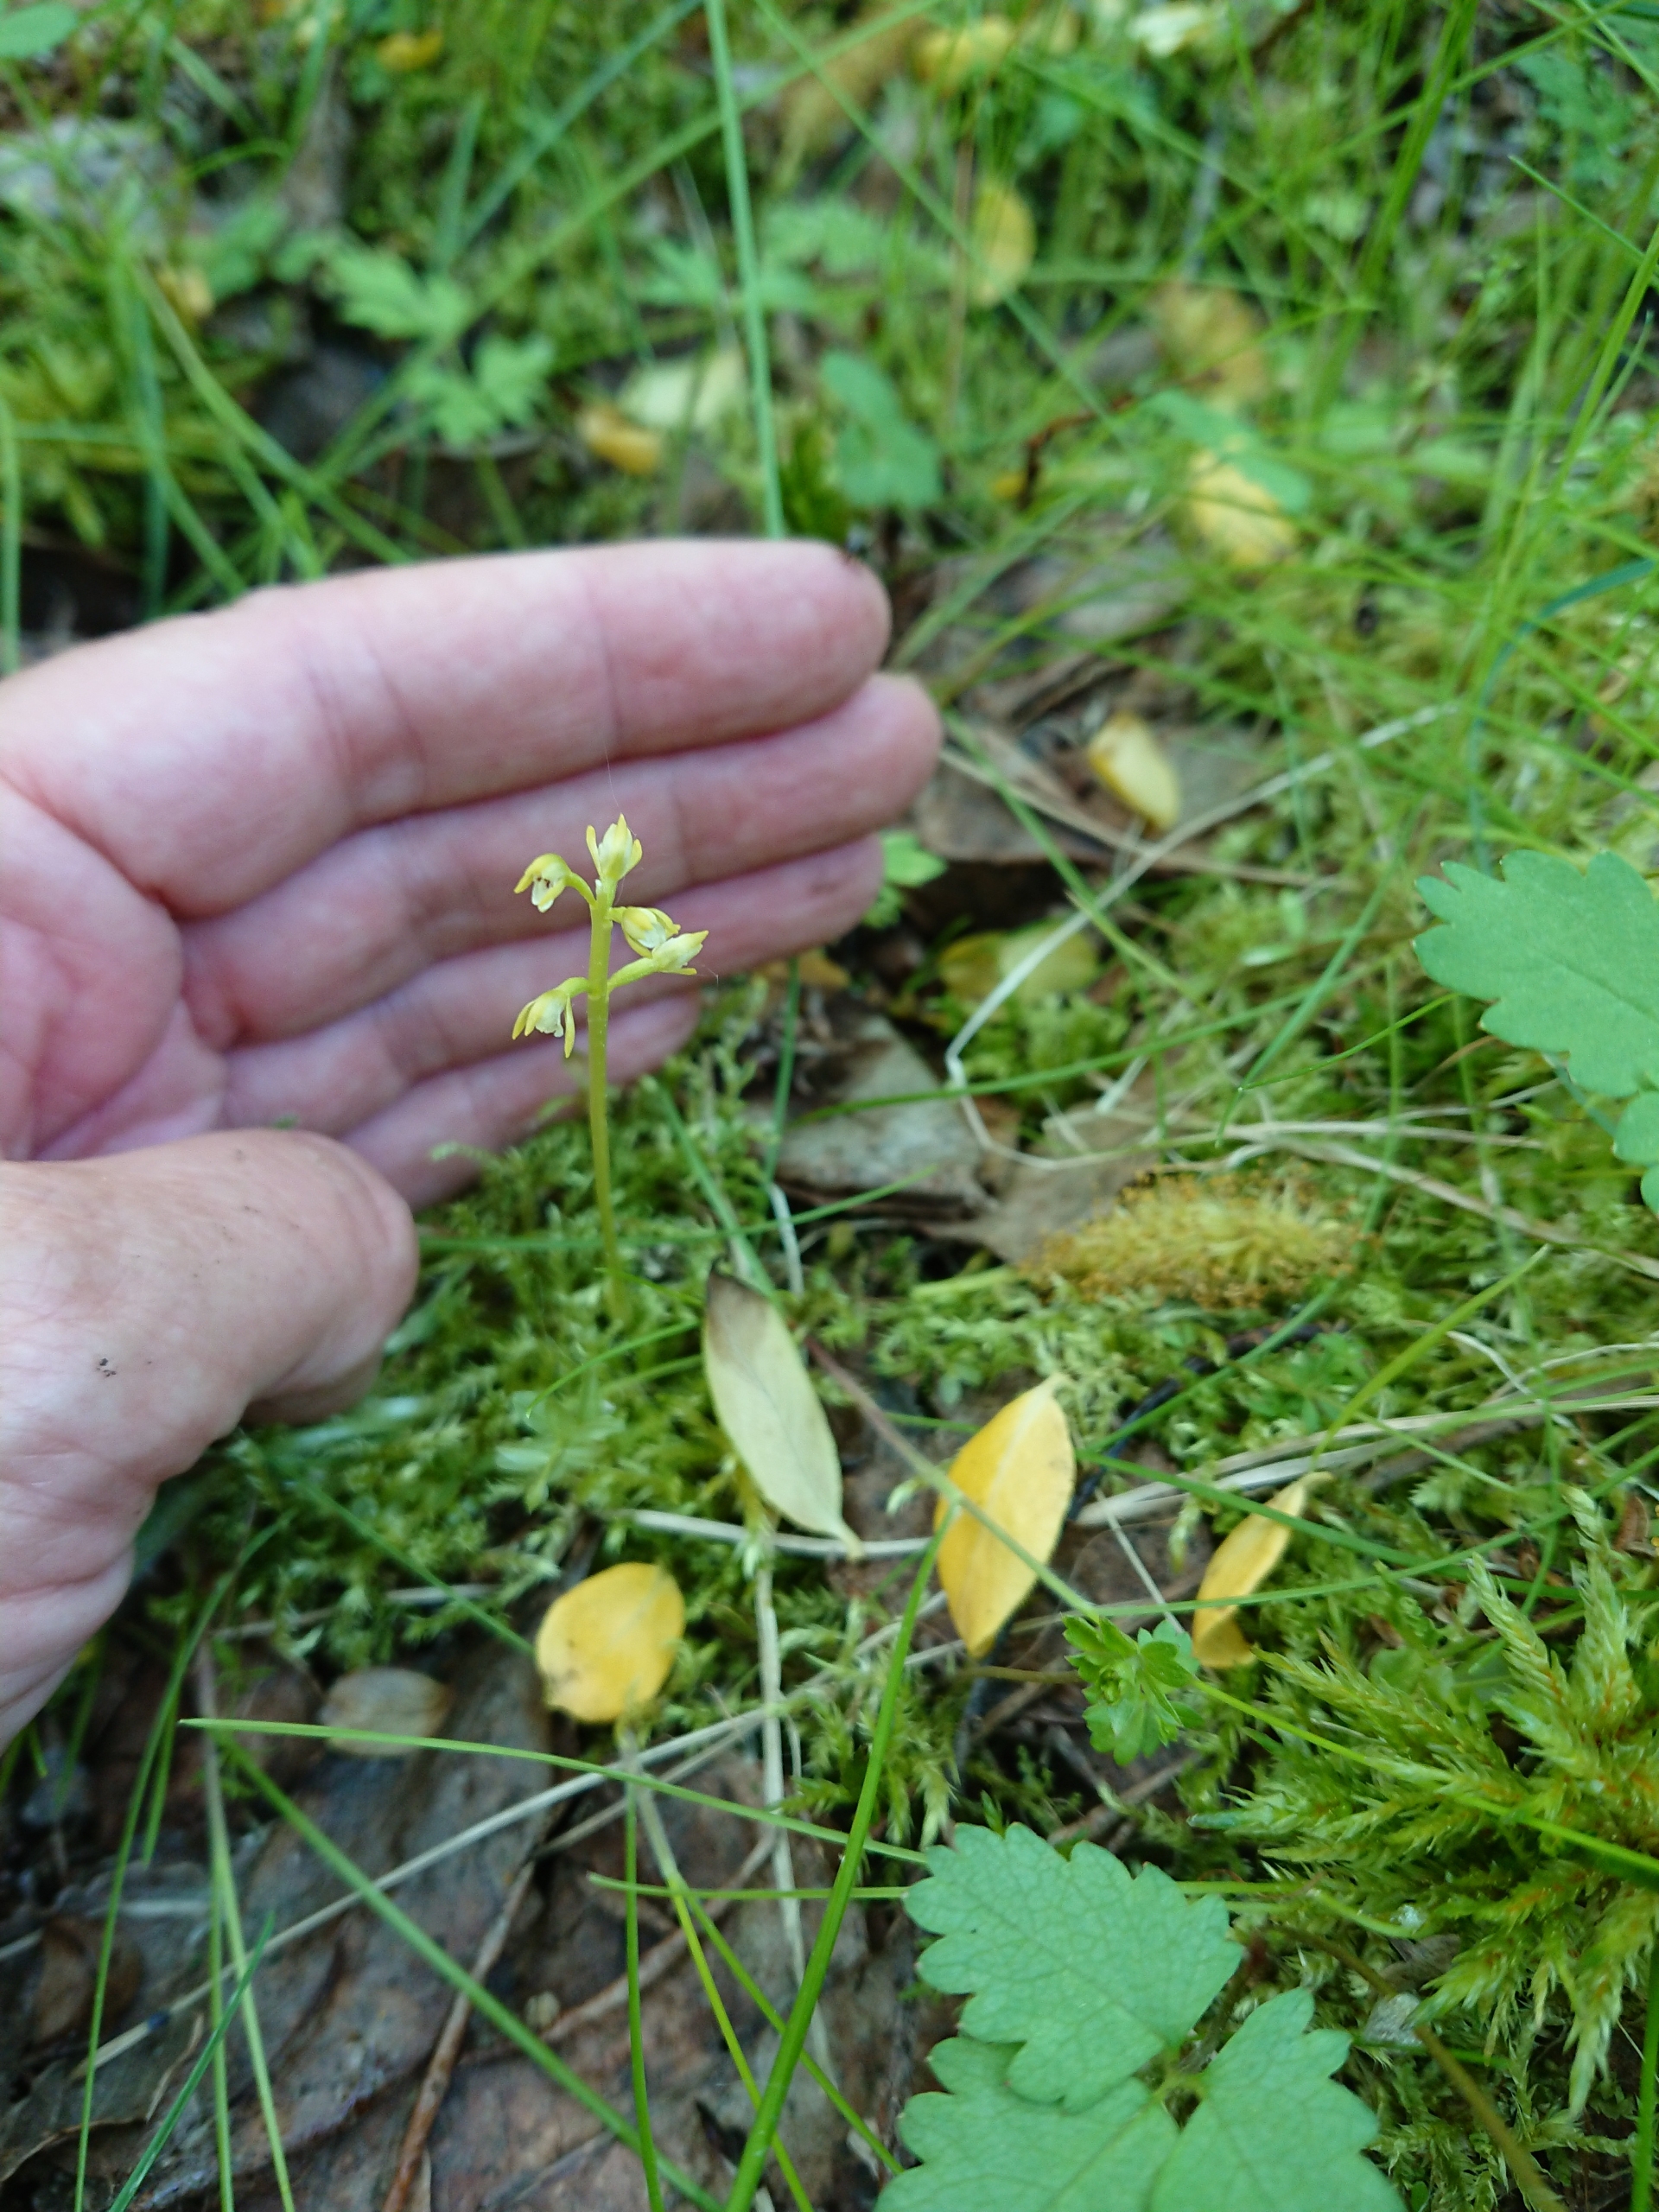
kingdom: Plantae
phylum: Tracheophyta
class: Liliopsida
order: Asparagales
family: Orchidaceae
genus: Corallorhiza
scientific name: Corallorhiza trifida
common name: Koralrod
